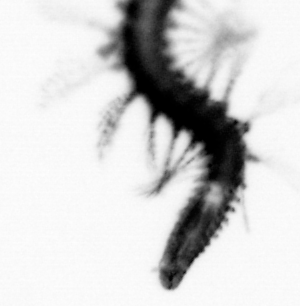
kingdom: Animalia
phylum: Annelida
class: Polychaeta
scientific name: Polychaeta
